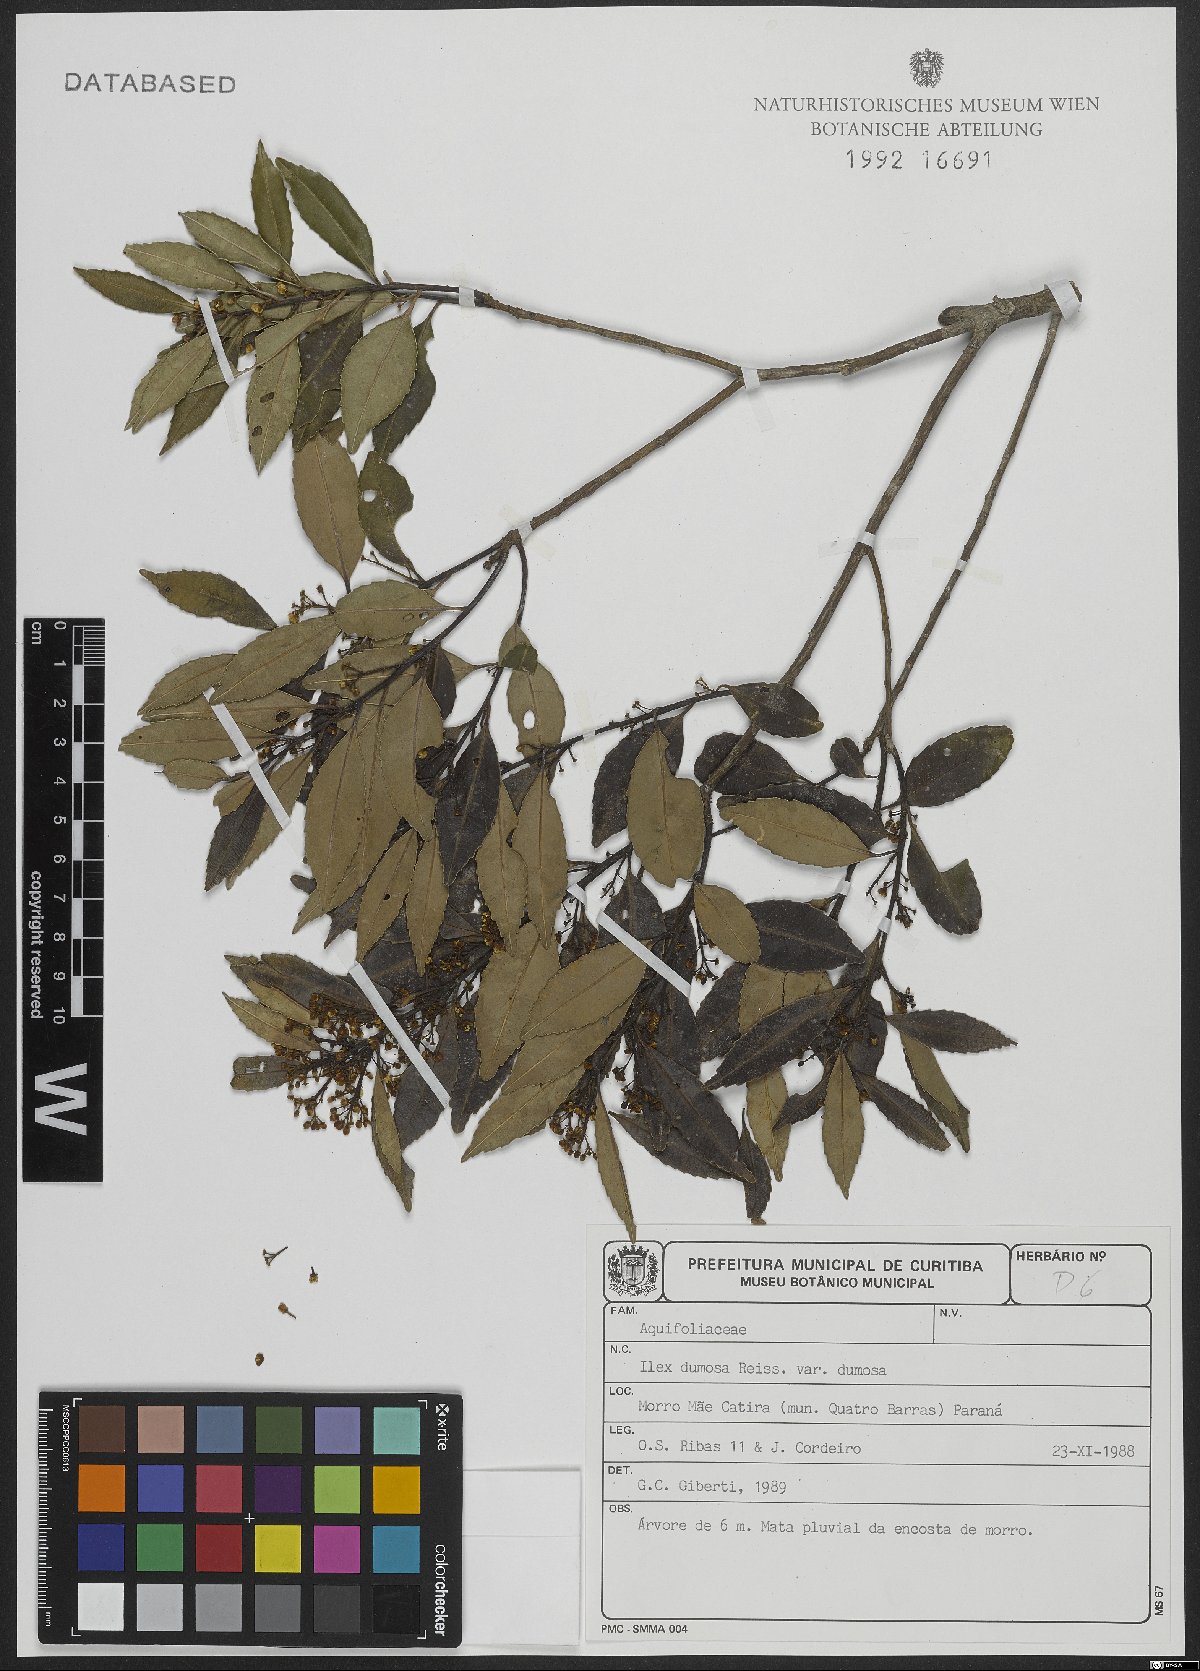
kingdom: Plantae
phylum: Tracheophyta
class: Magnoliopsida
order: Aquifoliales
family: Aquifoliaceae
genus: Ilex
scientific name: Ilex dumosa
